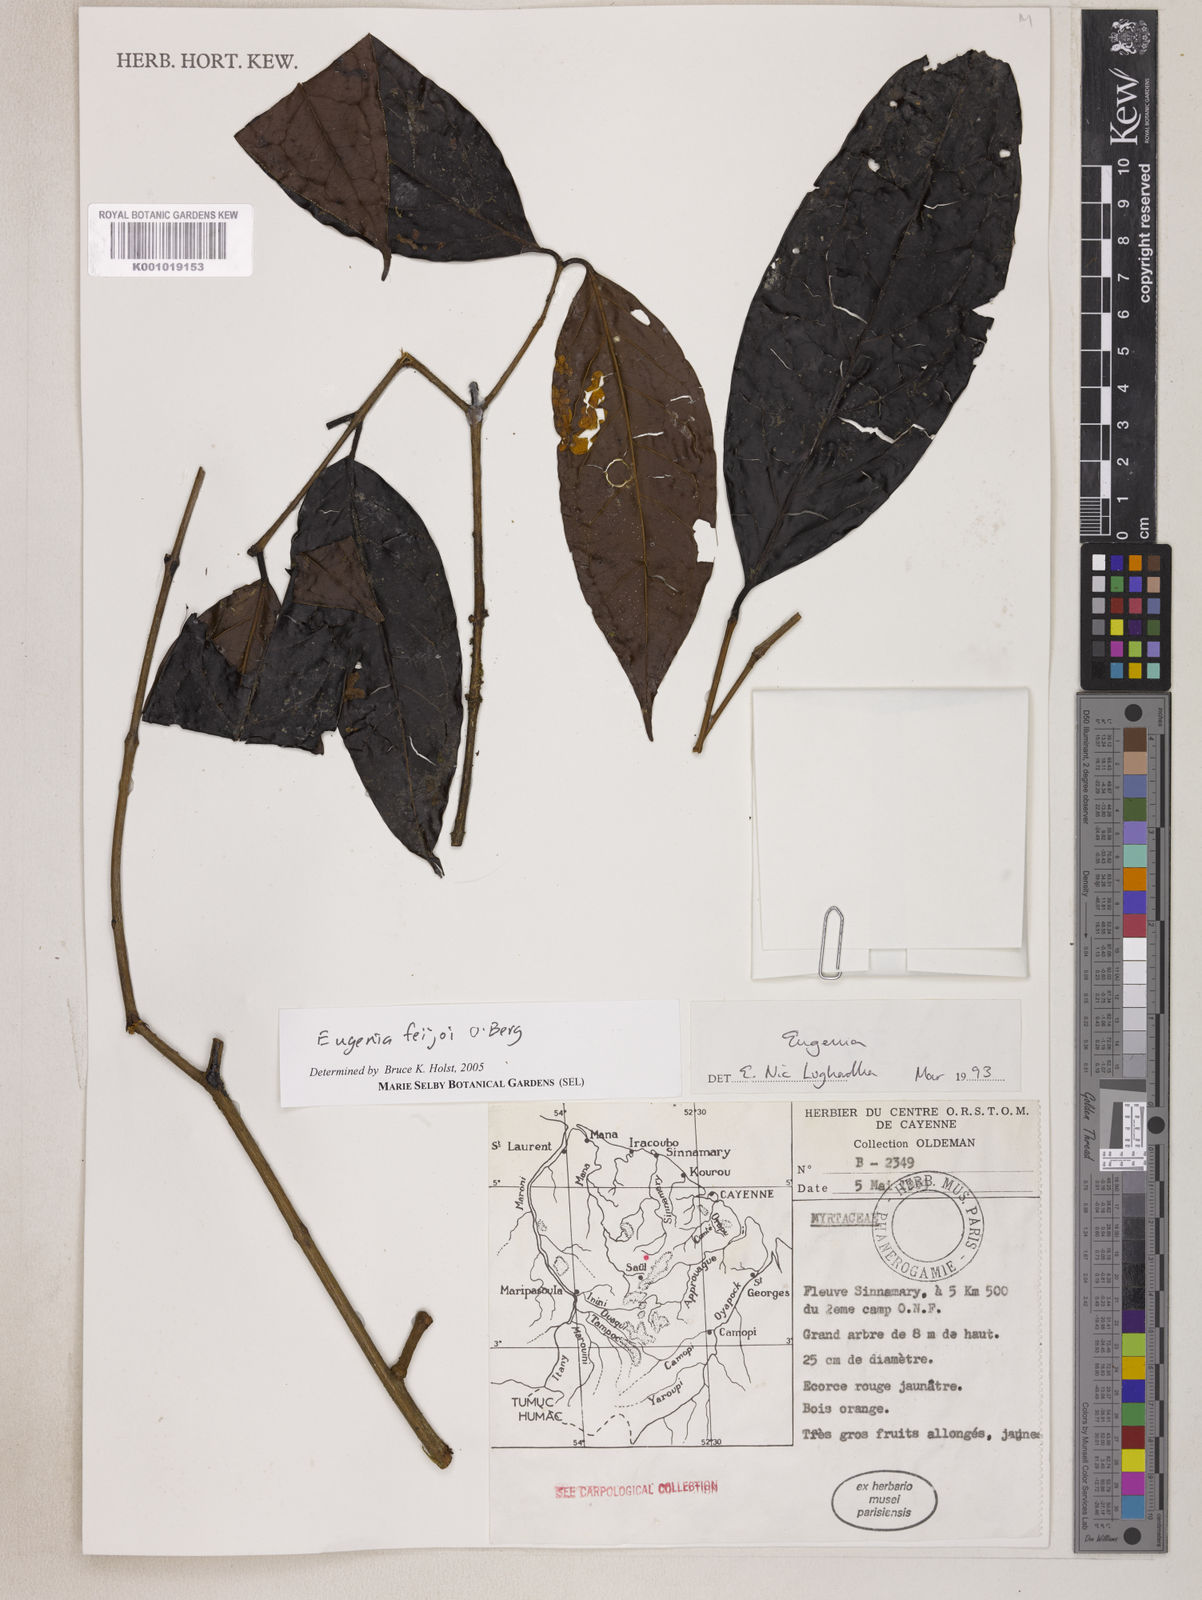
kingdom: Plantae
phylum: Tracheophyta
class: Magnoliopsida
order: Myrtales
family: Myrtaceae
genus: Eugenia
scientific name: Eugenia moschata
